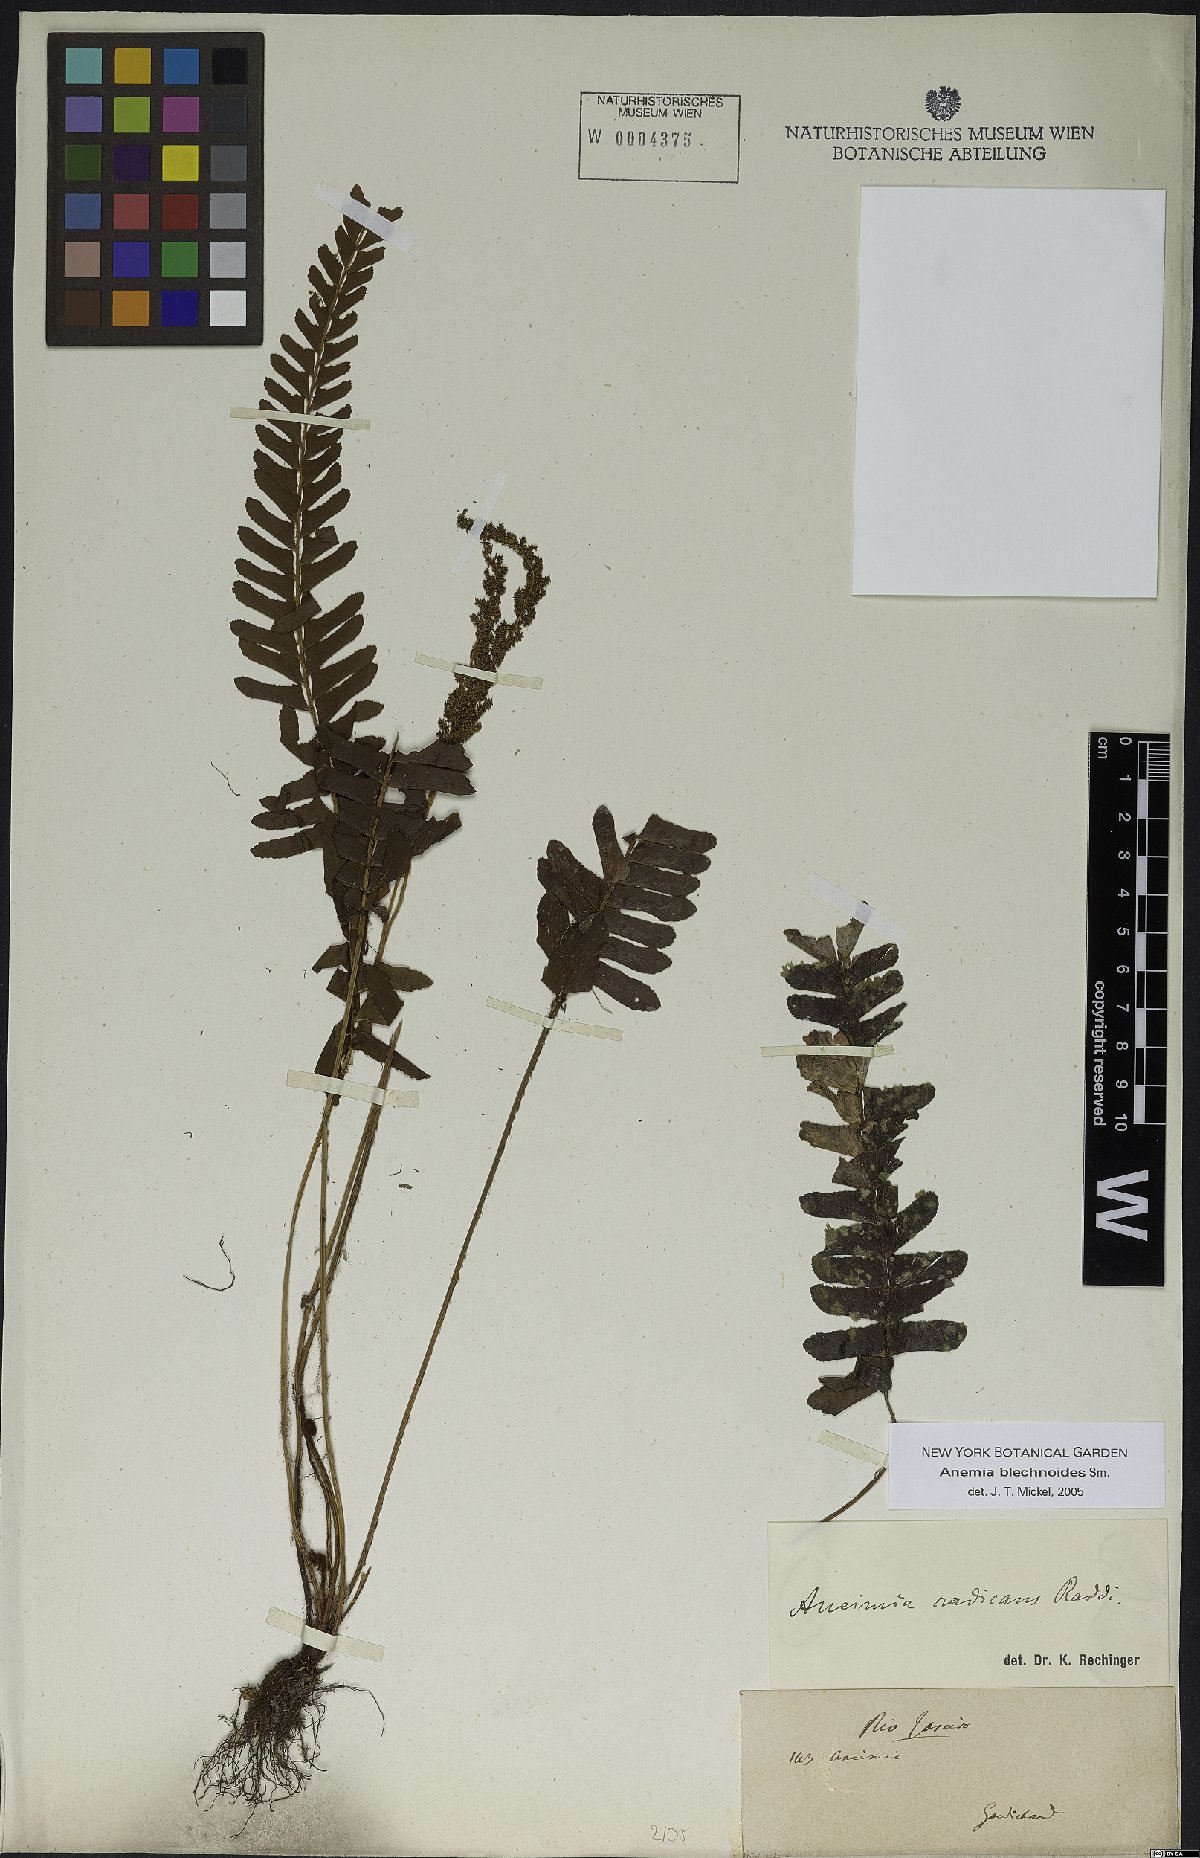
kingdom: Plantae
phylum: Tracheophyta
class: Polypodiopsida
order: Schizaeales
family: Anemiaceae
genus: Anemia
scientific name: Anemia spicantoides
